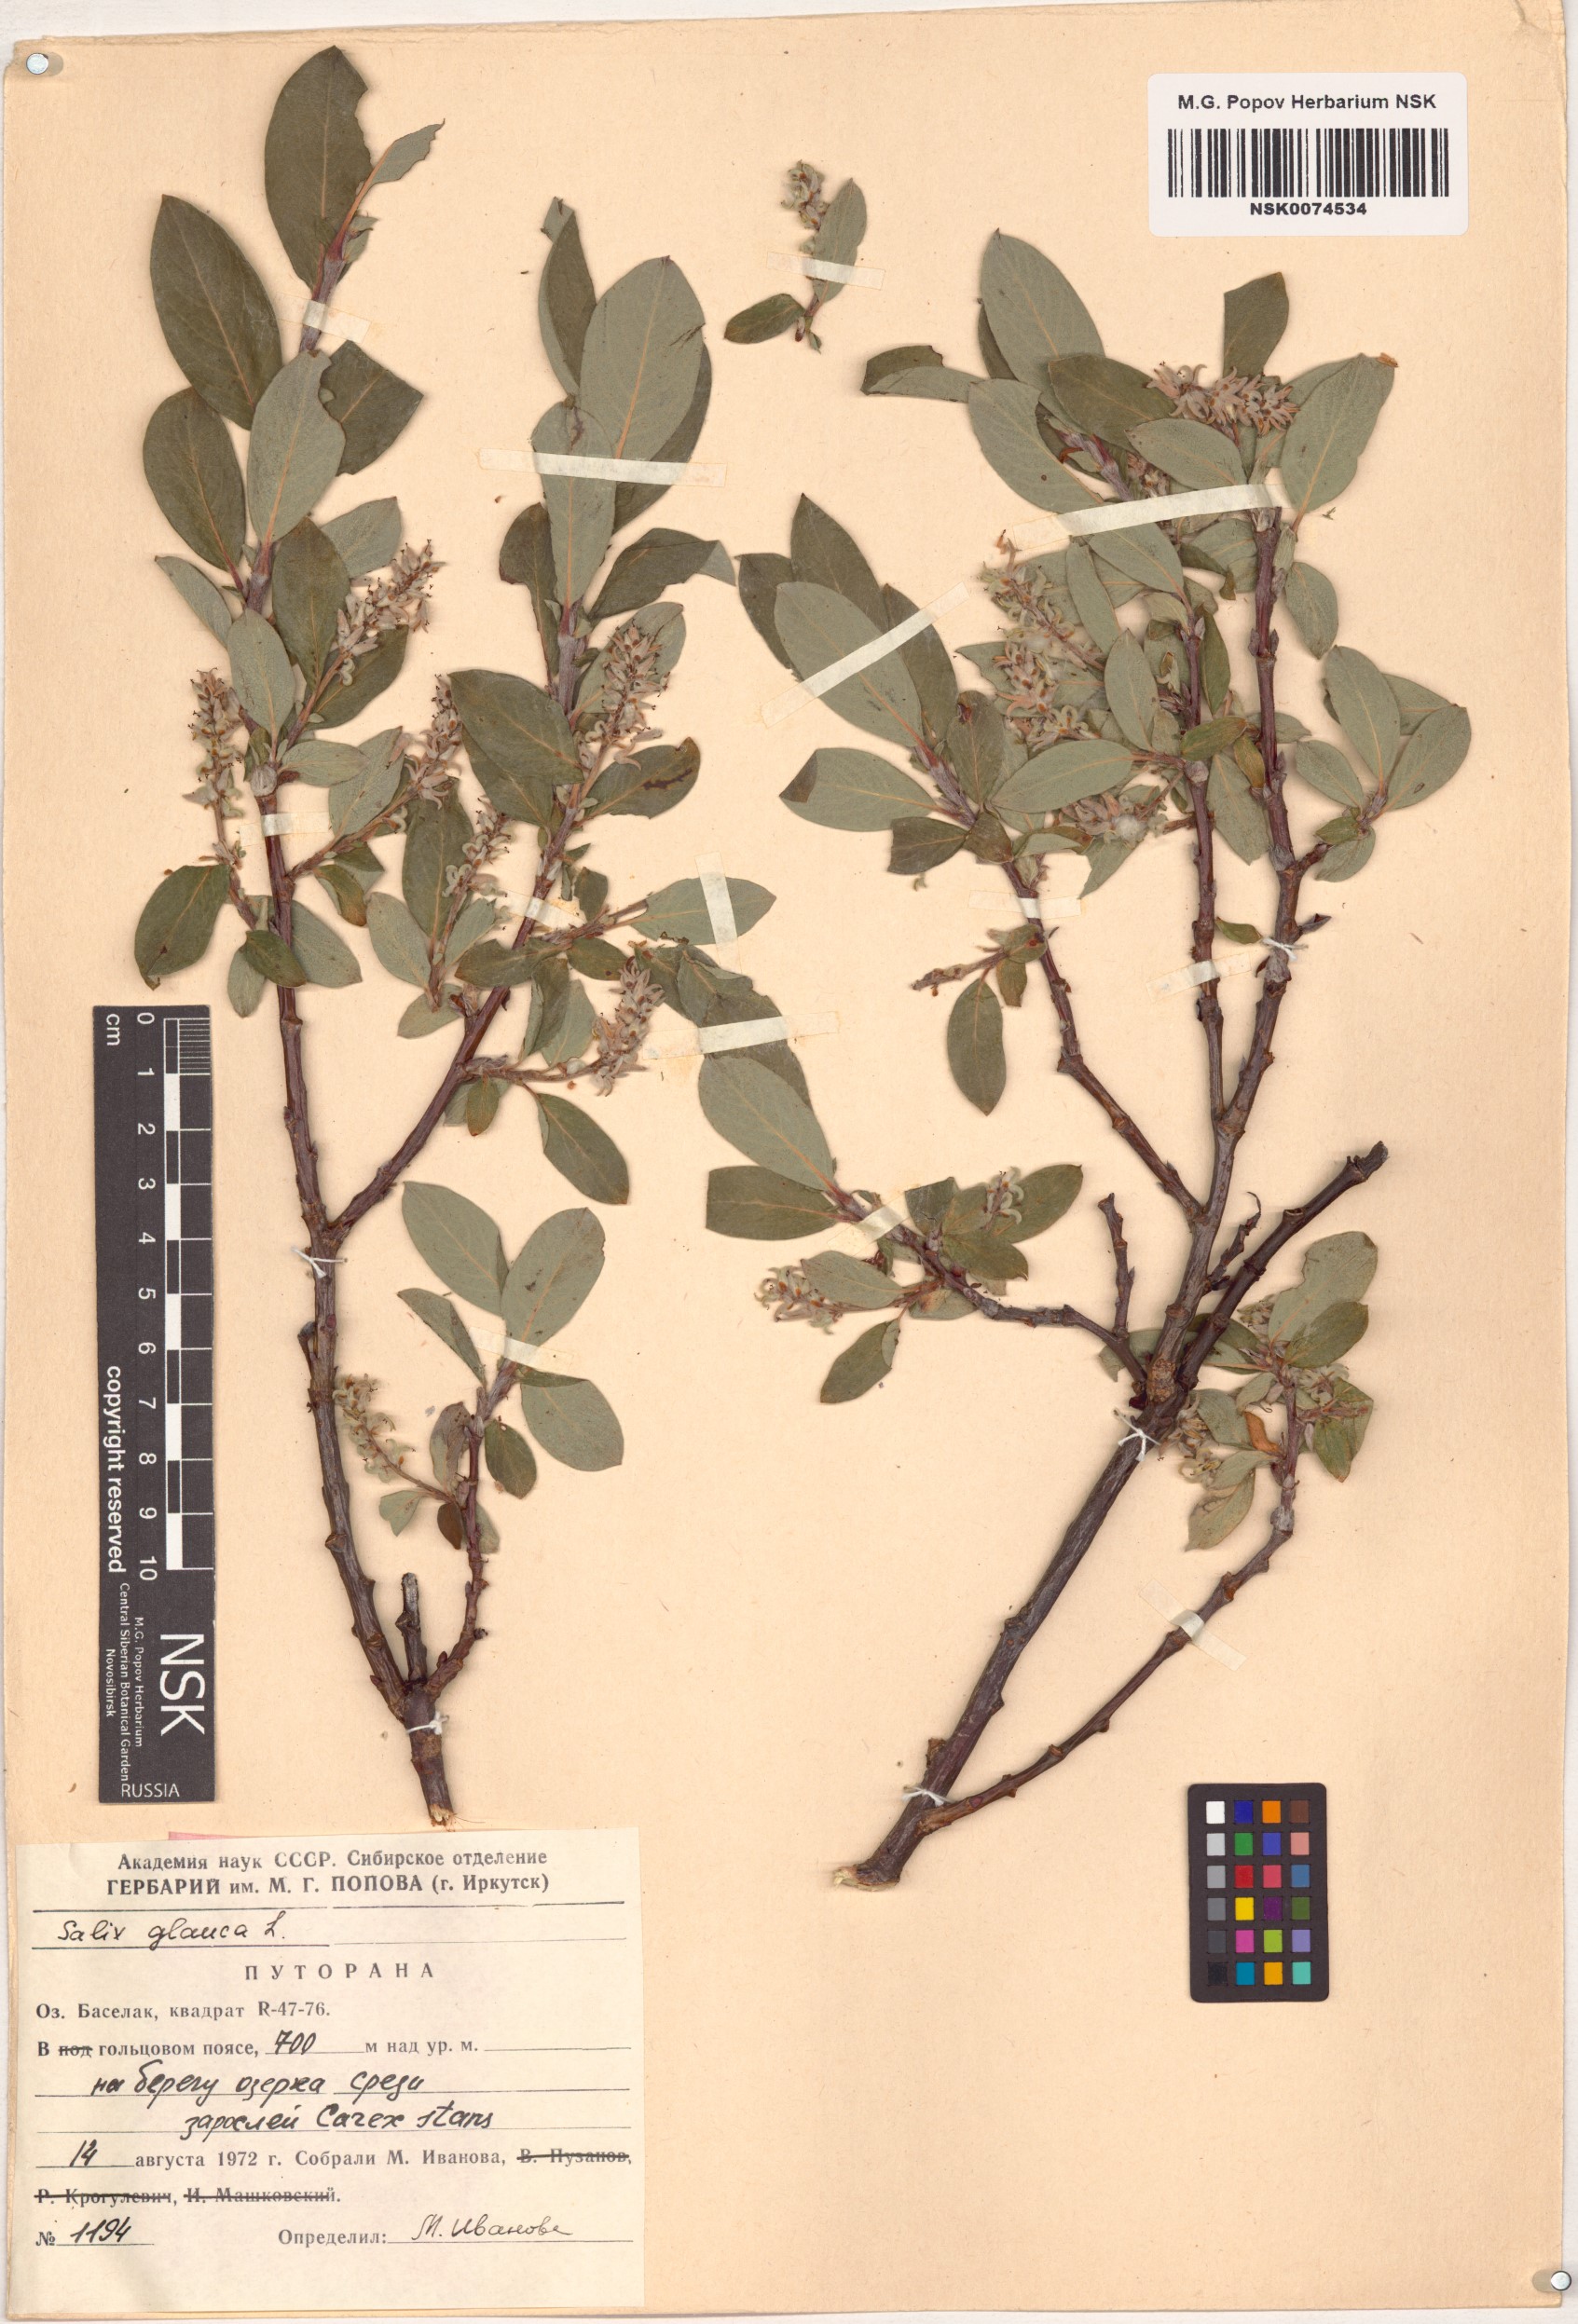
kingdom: Plantae
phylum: Tracheophyta
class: Magnoliopsida
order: Malpighiales
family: Salicaceae
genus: Salix
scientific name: Salix glauca
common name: Glaucous willow
